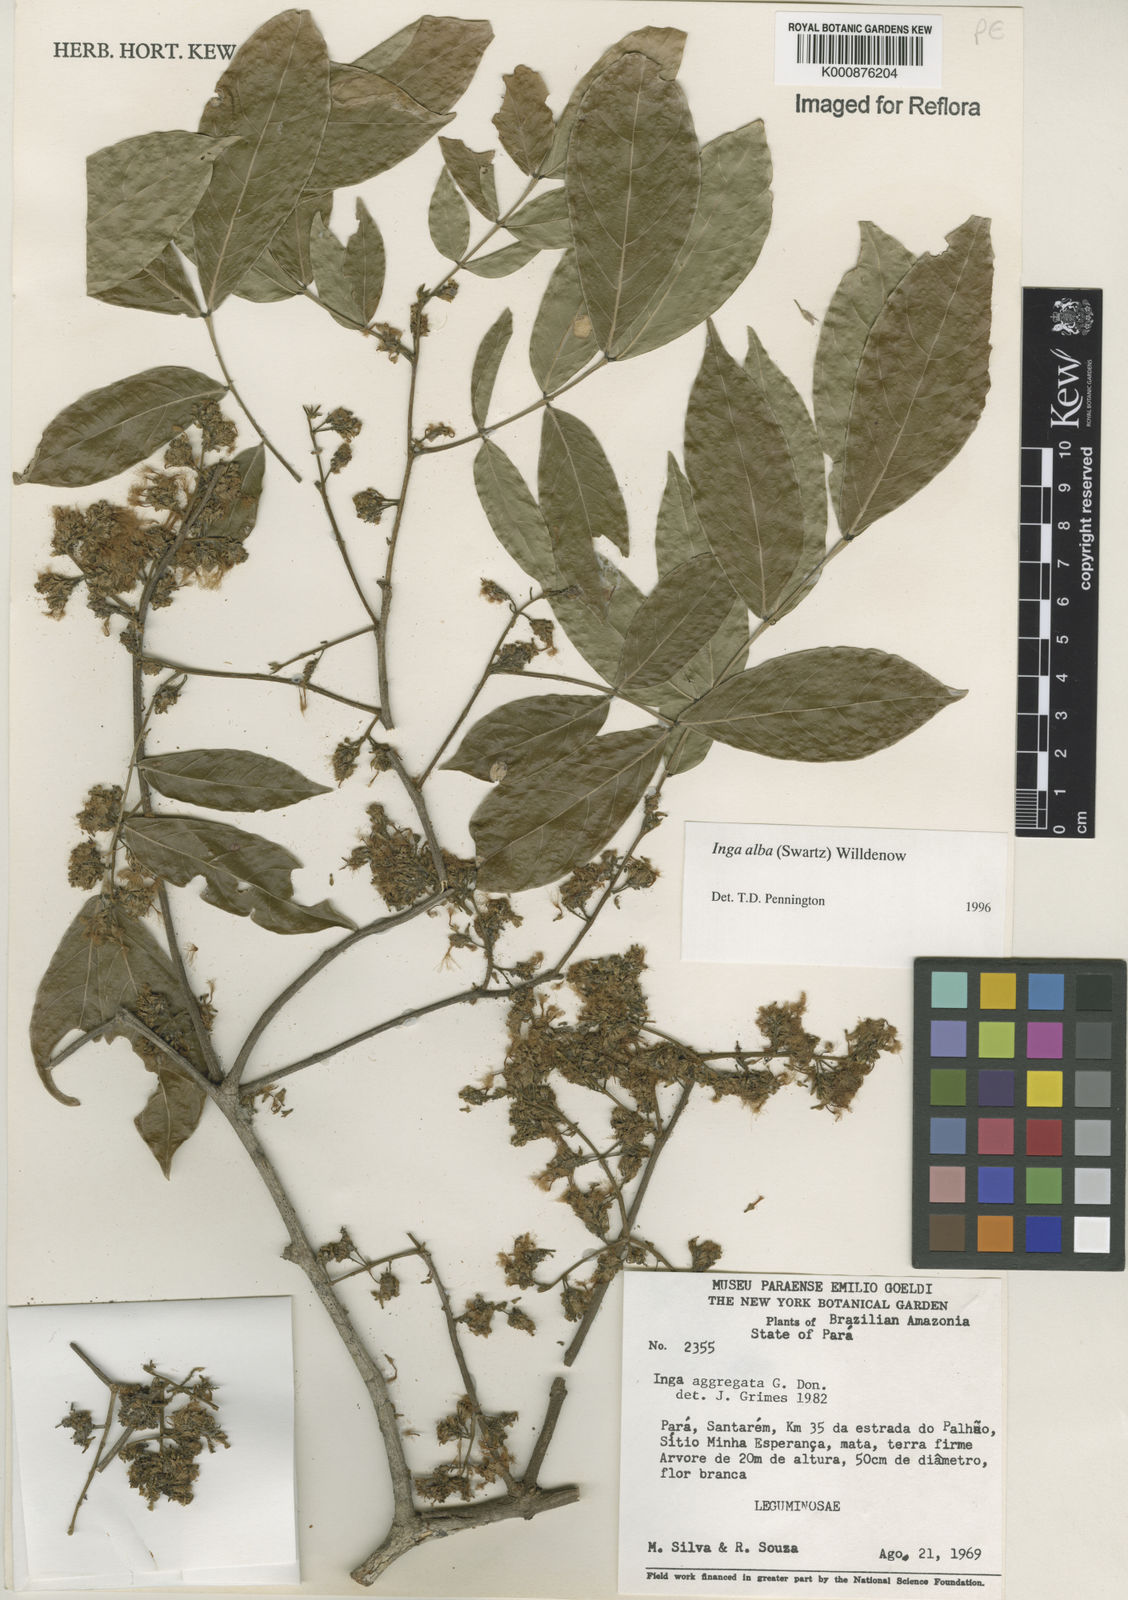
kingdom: Plantae
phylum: Tracheophyta
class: Magnoliopsida
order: Fabales
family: Fabaceae
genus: Inga
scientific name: Inga alba
